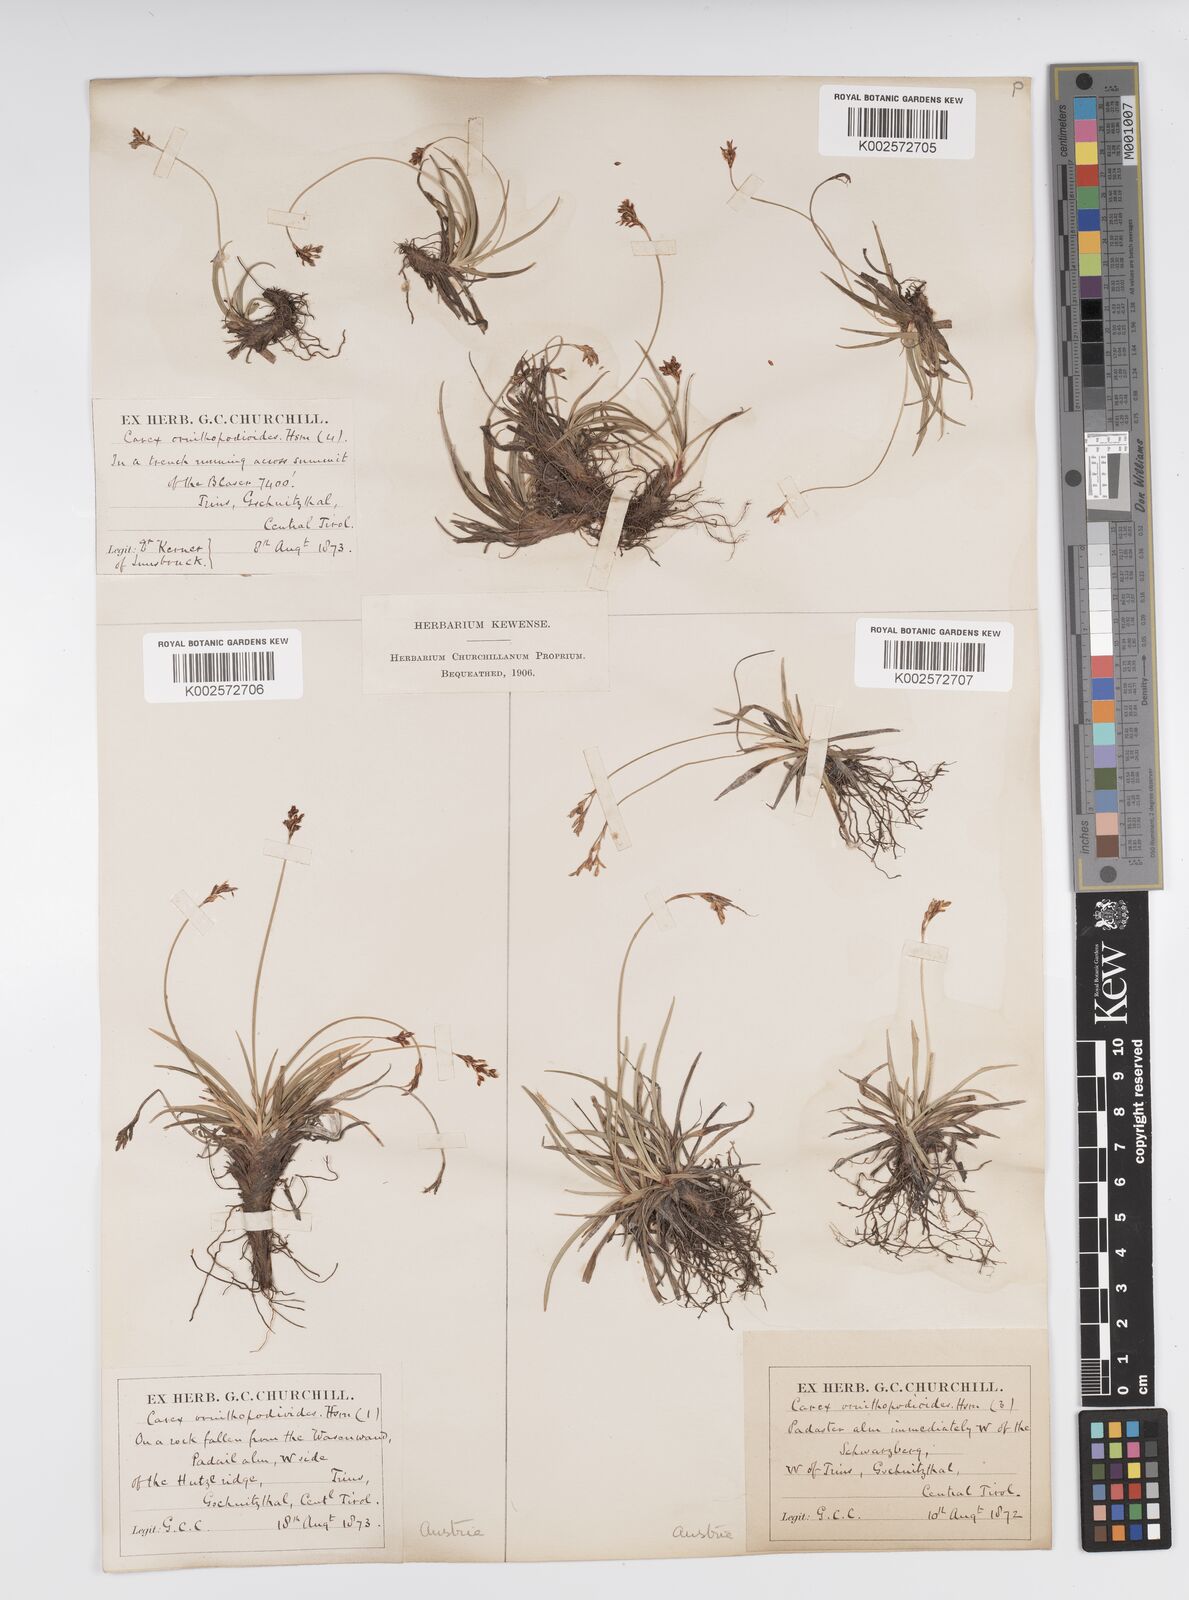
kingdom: Plantae
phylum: Tracheophyta
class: Liliopsida
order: Poales
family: Cyperaceae
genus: Carex
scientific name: Carex ornithopoda
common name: Bird's-foot sedge
